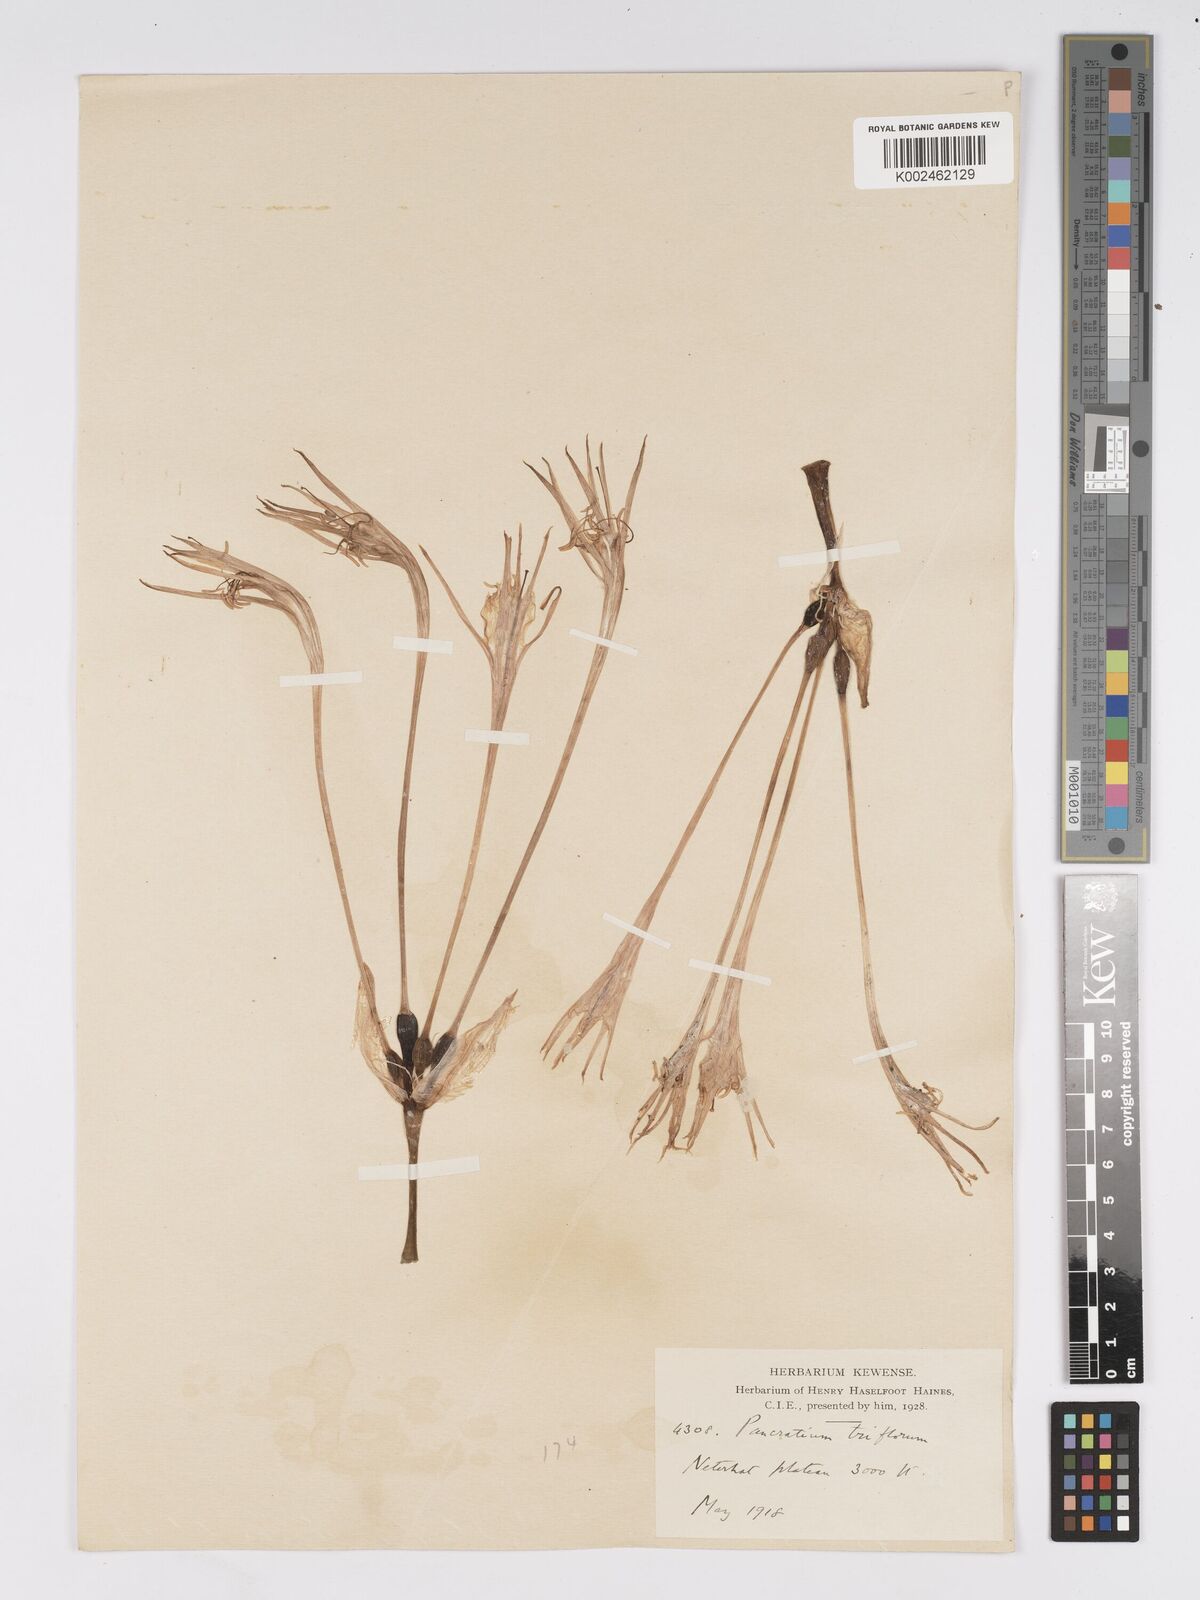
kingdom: Plantae
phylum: Tracheophyta
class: Liliopsida
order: Asparagales
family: Amaryllidaceae
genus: Pancratium
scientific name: Pancratium verecundum
